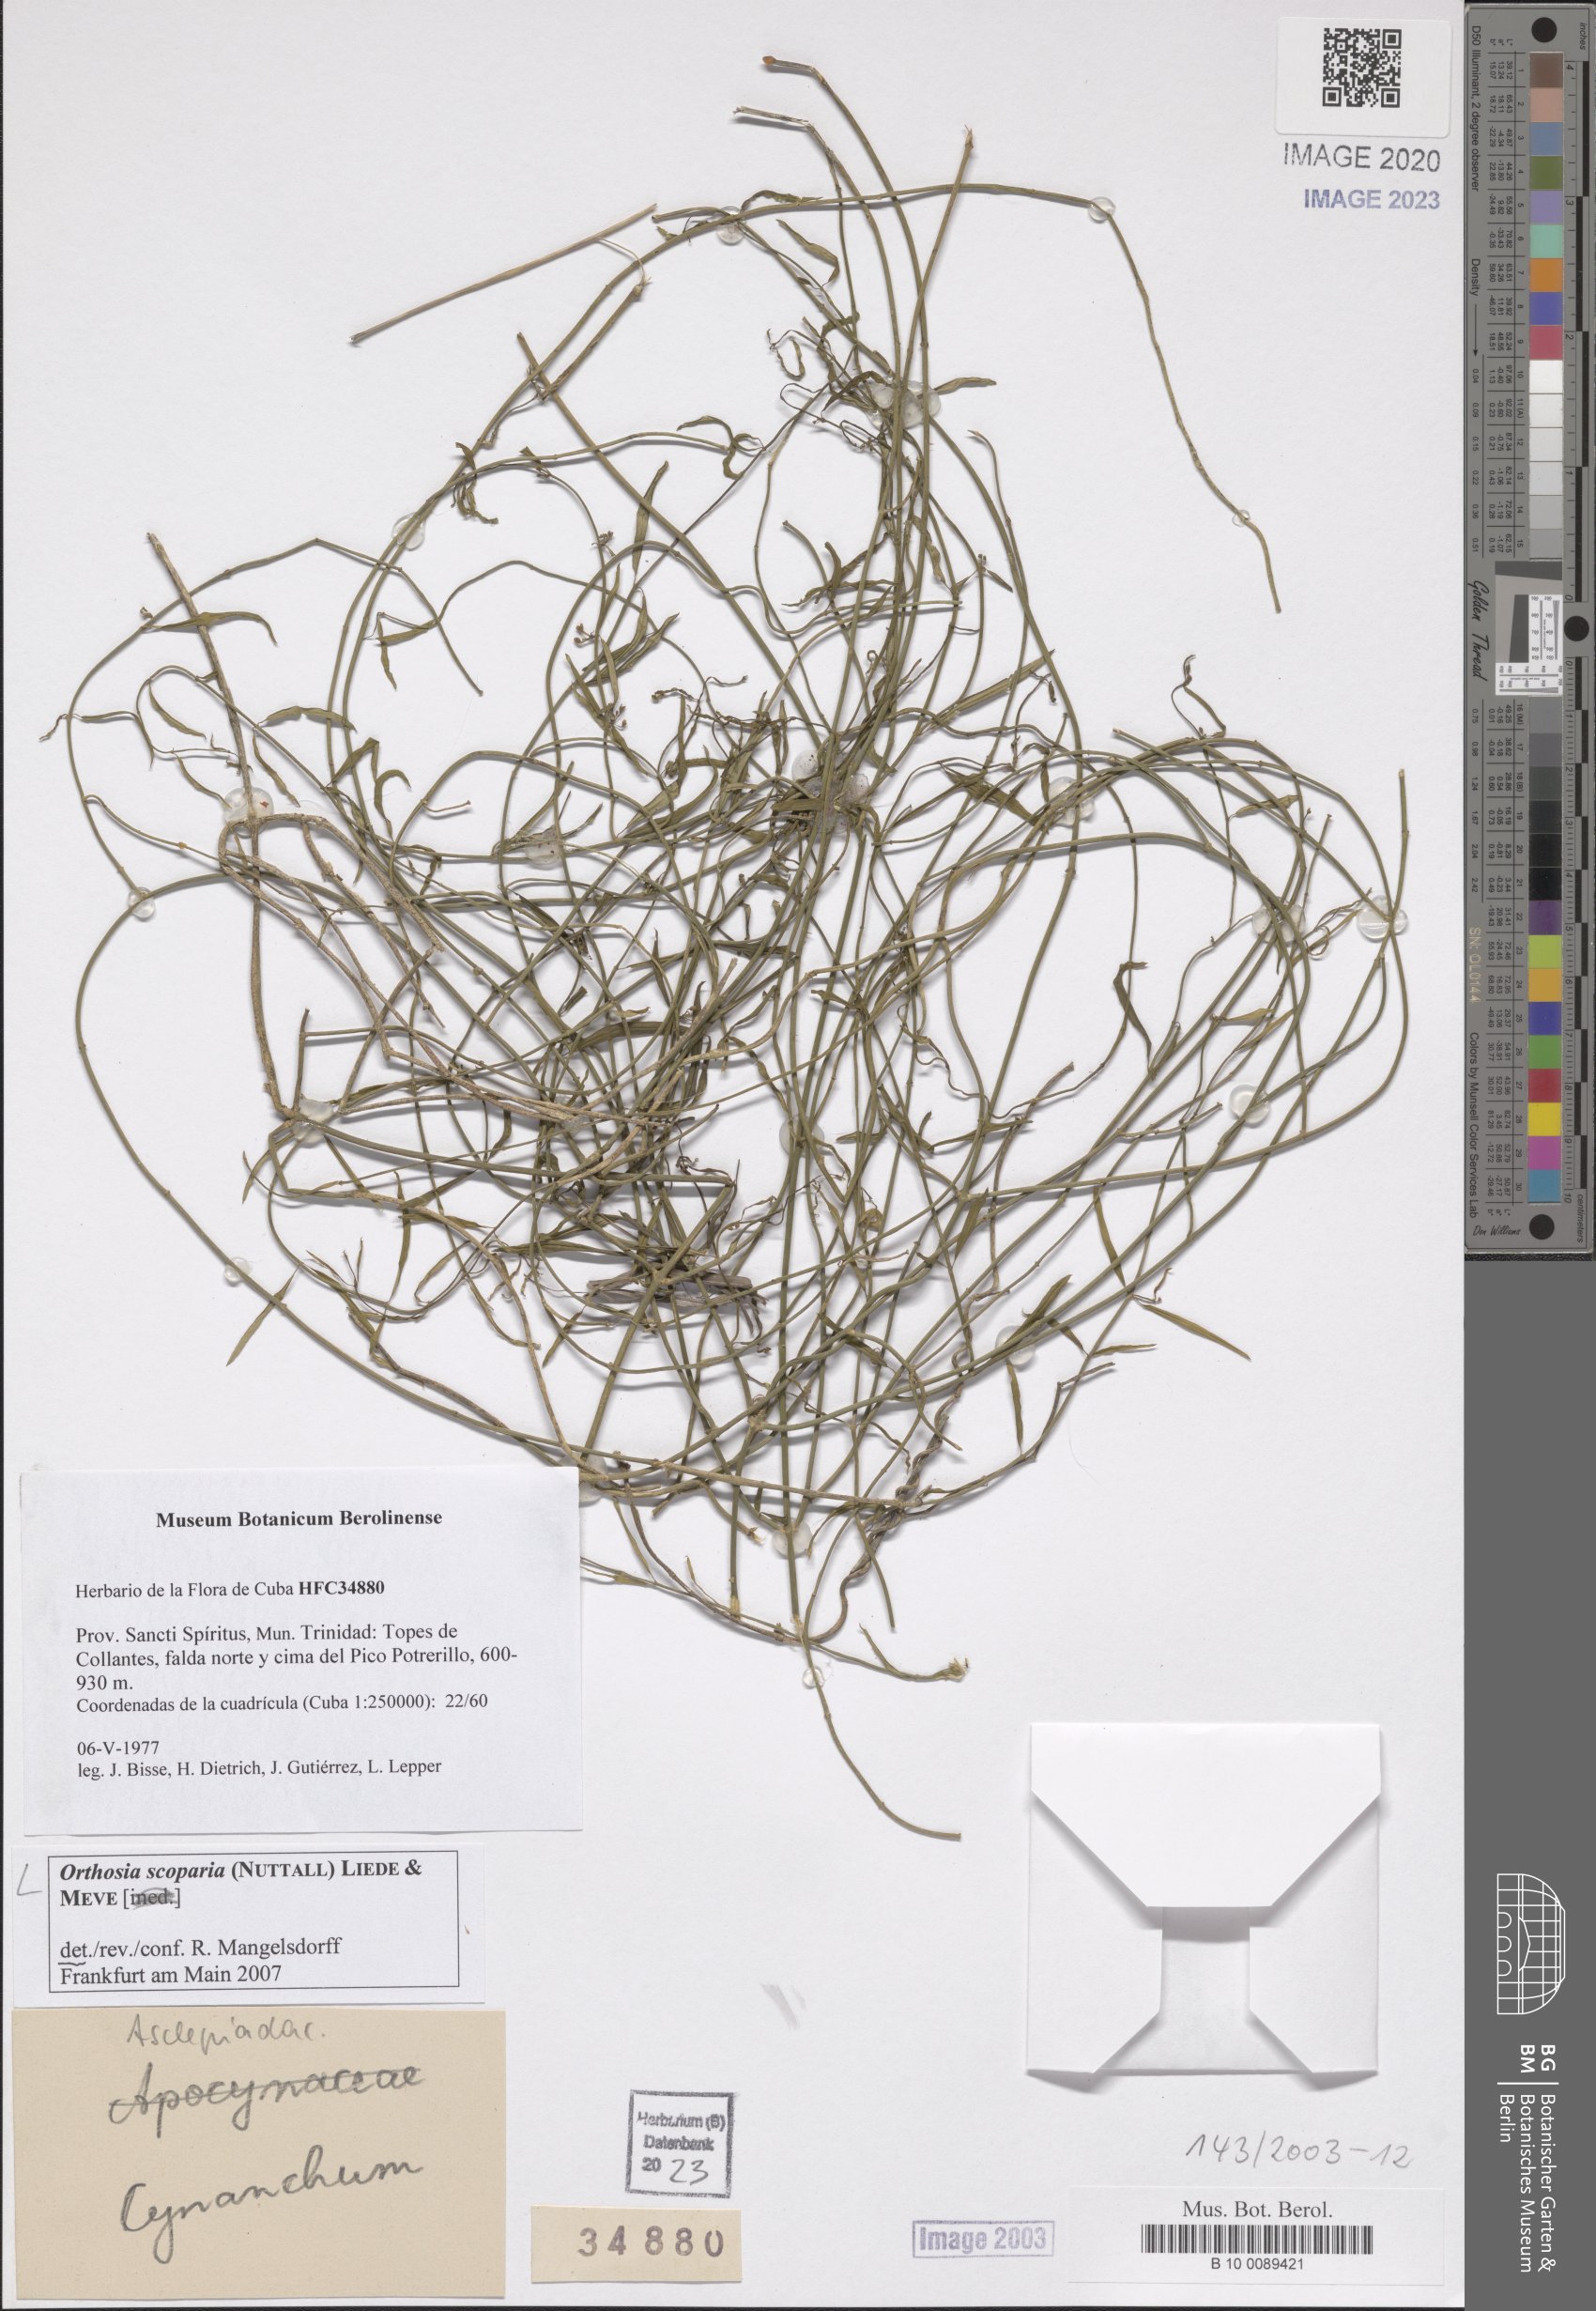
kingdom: Plantae
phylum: Tracheophyta
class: Magnoliopsida
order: Gentianales
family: Apocynaceae
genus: Orthosia
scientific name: Orthosia scoparia
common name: Leafless swallow-wort
